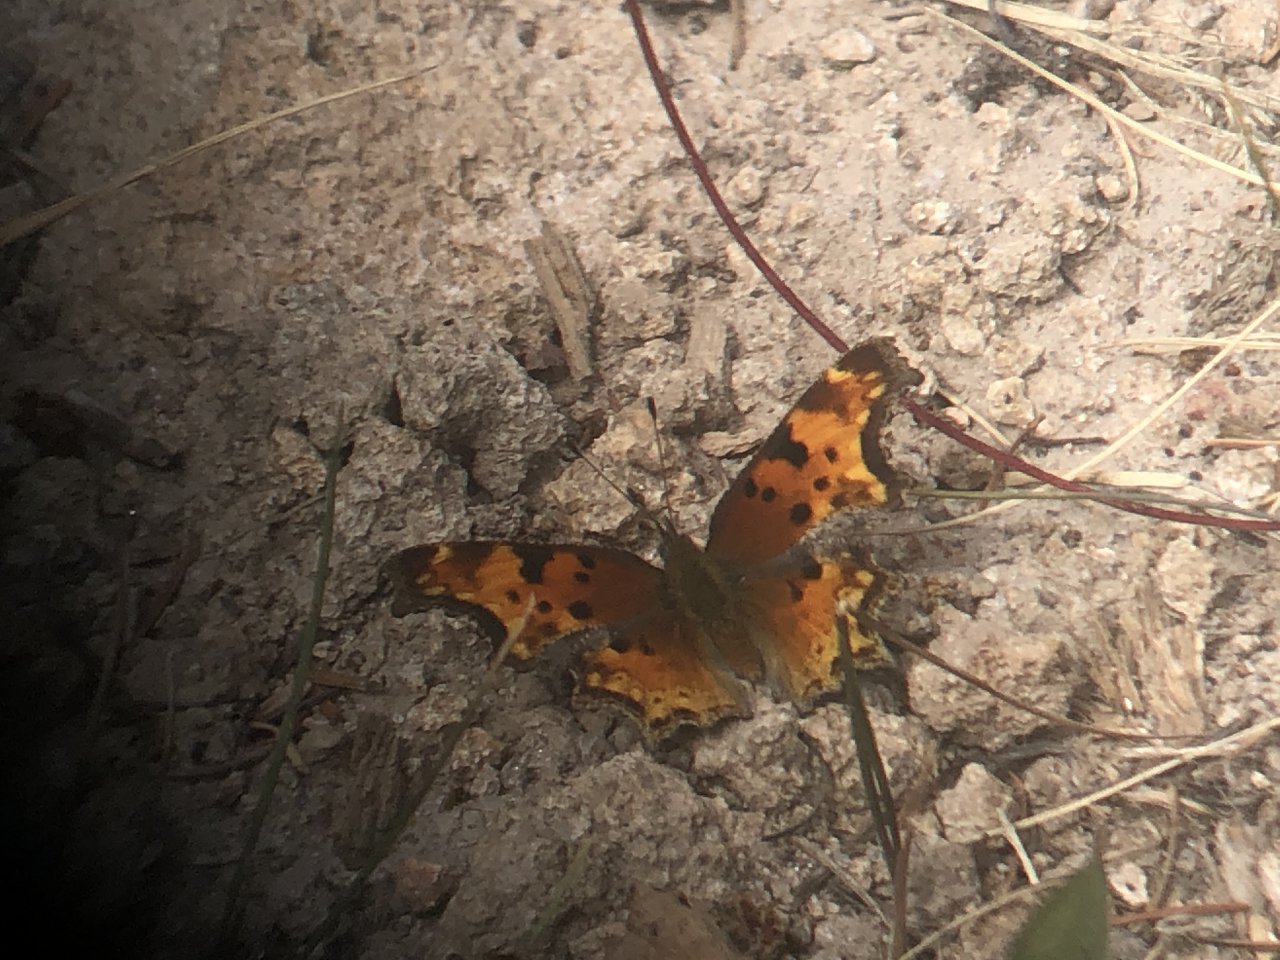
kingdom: Animalia
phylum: Arthropoda
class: Insecta
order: Lepidoptera
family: Nymphalidae
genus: Polygonia
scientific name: Polygonia gracilis
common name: Hoary Comma
